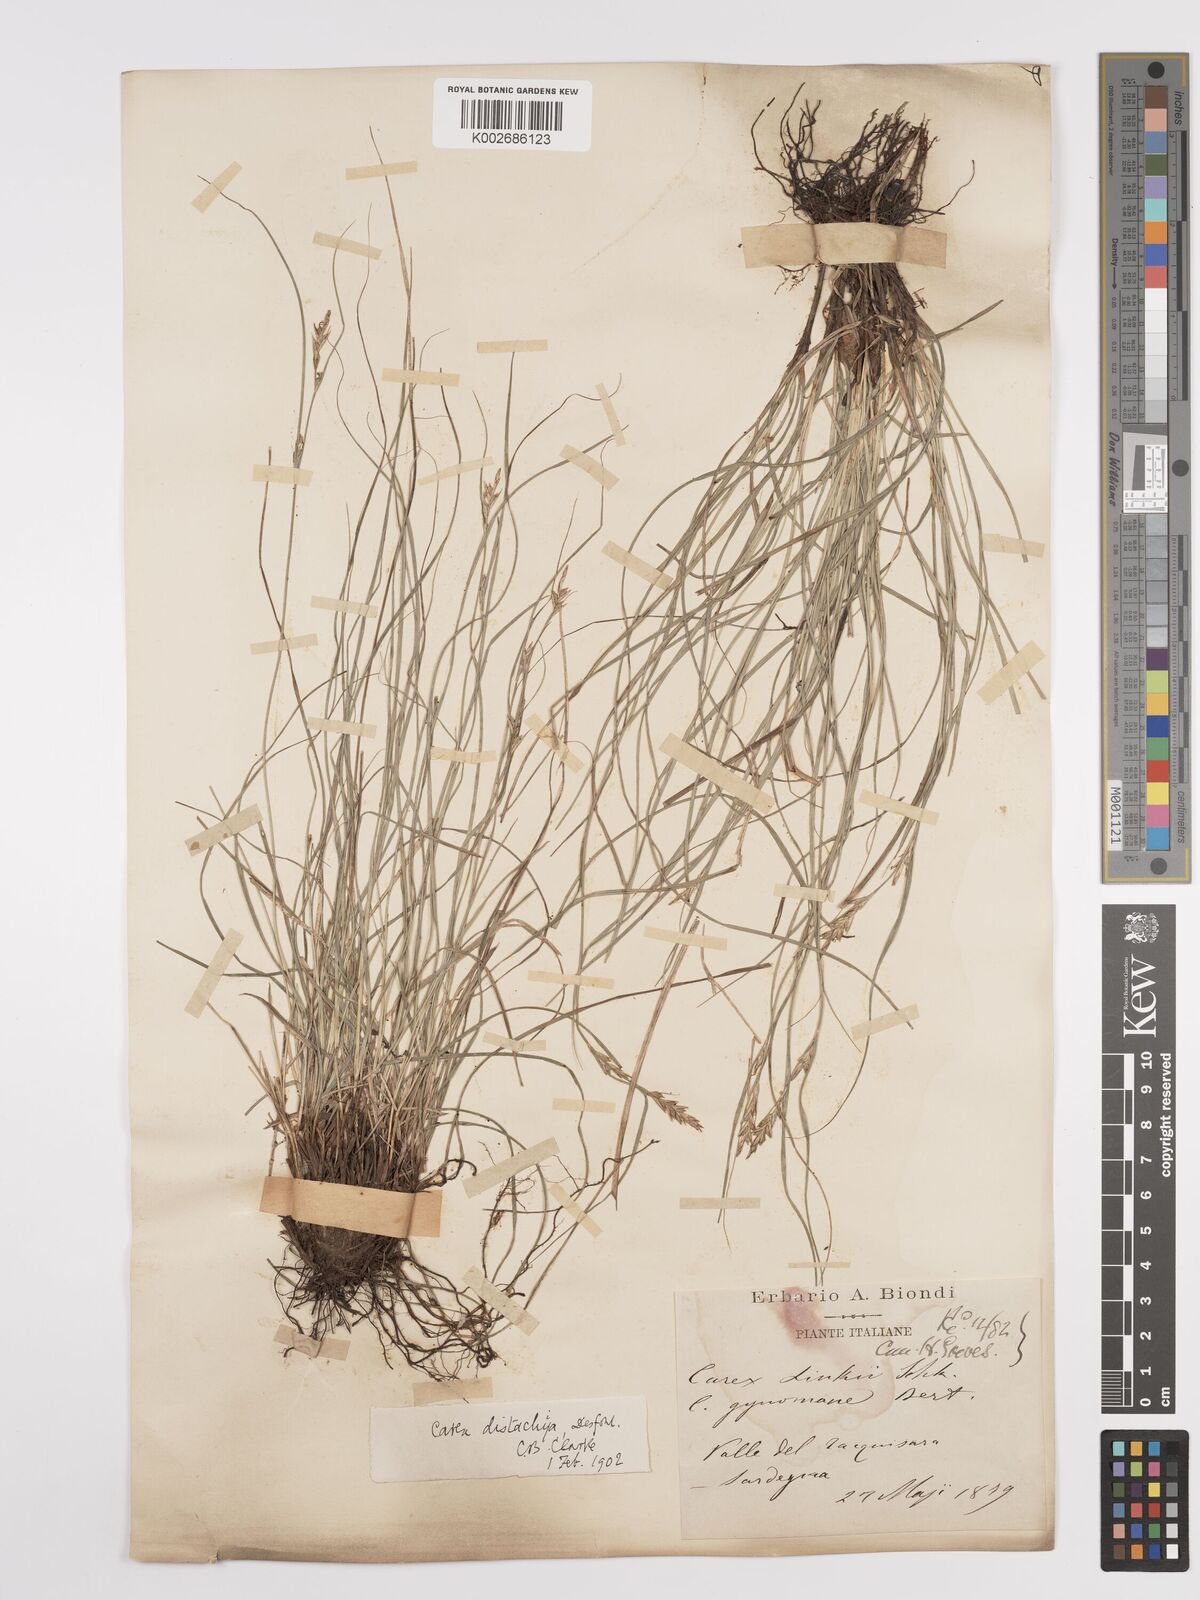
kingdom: Plantae
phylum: Tracheophyta
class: Liliopsida
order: Poales
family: Cyperaceae
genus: Carex
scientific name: Carex distachya
